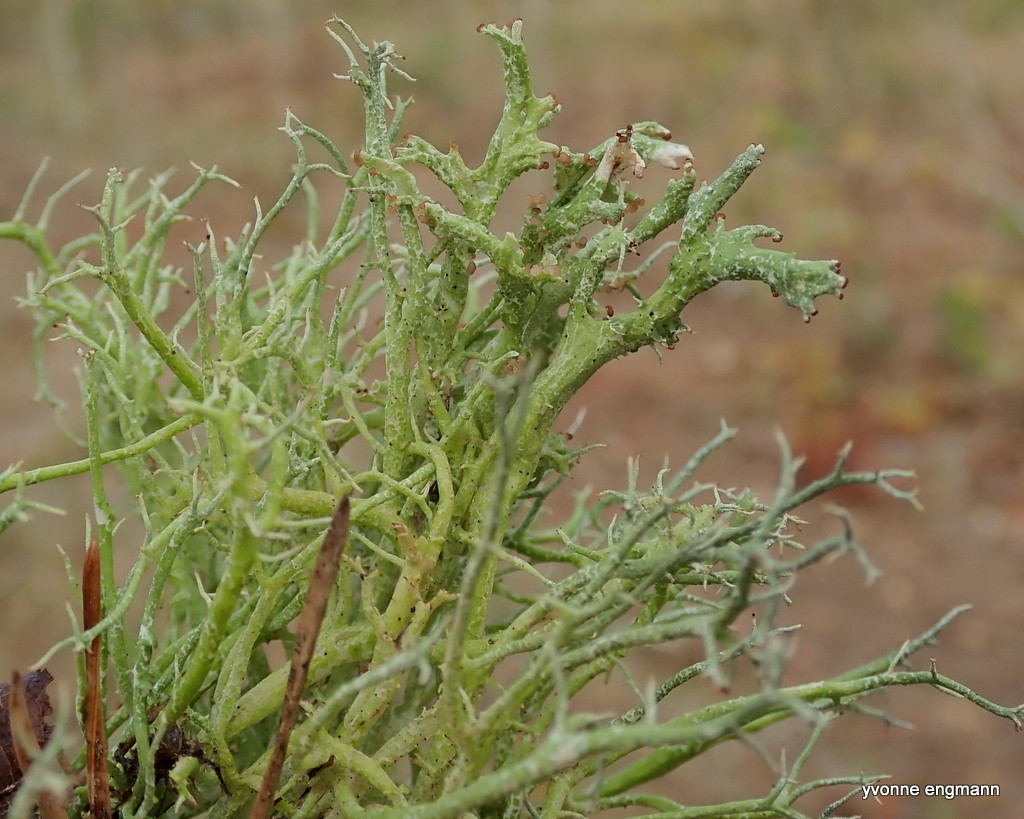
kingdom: Fungi
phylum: Ascomycota
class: Lecanoromycetes
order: Lecanorales
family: Cladoniaceae
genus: Cladonia
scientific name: Cladonia furcata
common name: kløftet bægerlav
